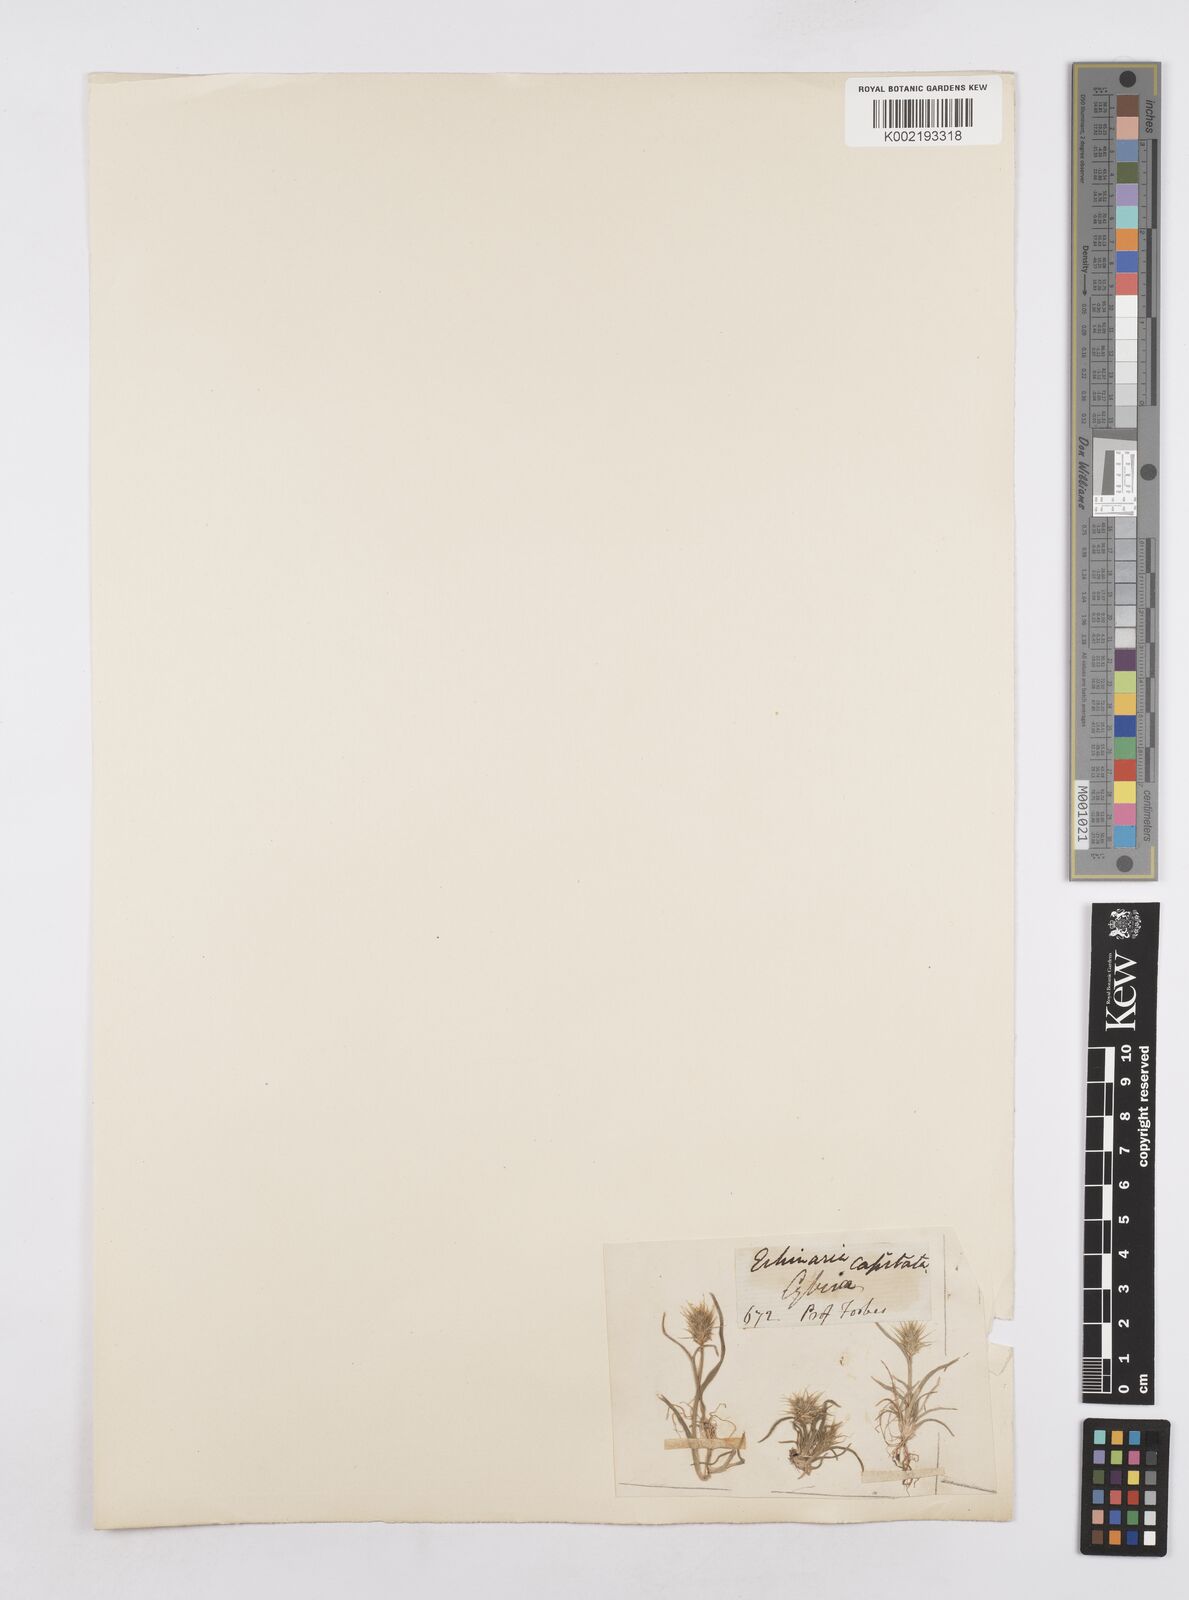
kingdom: Plantae
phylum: Tracheophyta
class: Liliopsida
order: Poales
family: Poaceae
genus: Echinaria
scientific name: Echinaria capitata
